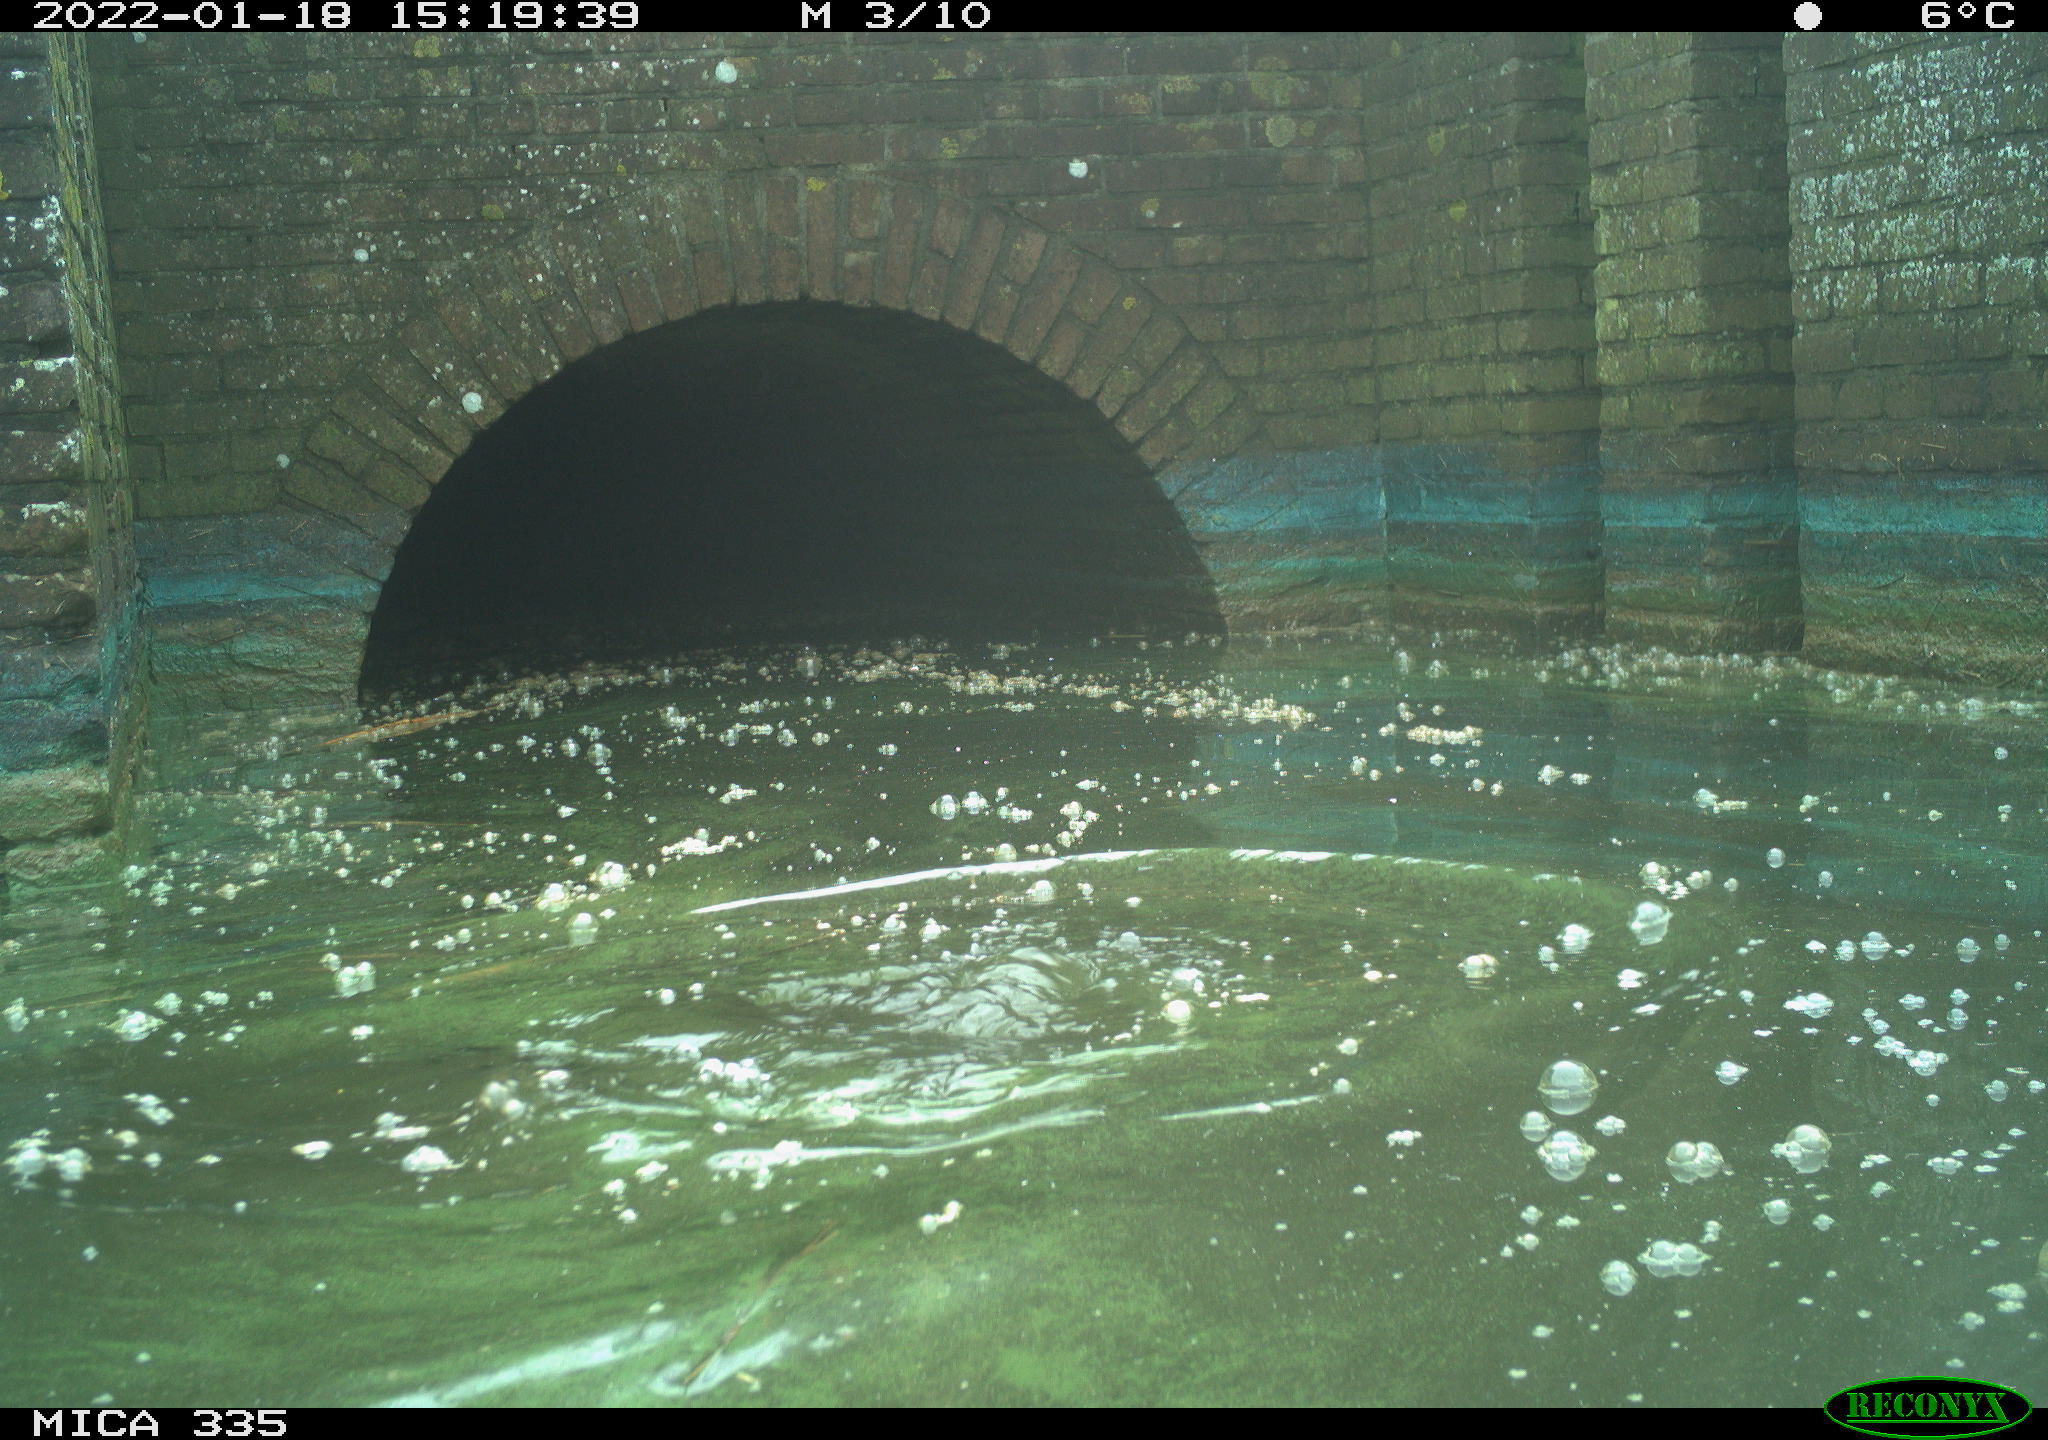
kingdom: Animalia
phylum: Chordata
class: Aves
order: Suliformes
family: Phalacrocoracidae
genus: Phalacrocorax
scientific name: Phalacrocorax carbo
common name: Great cormorant
